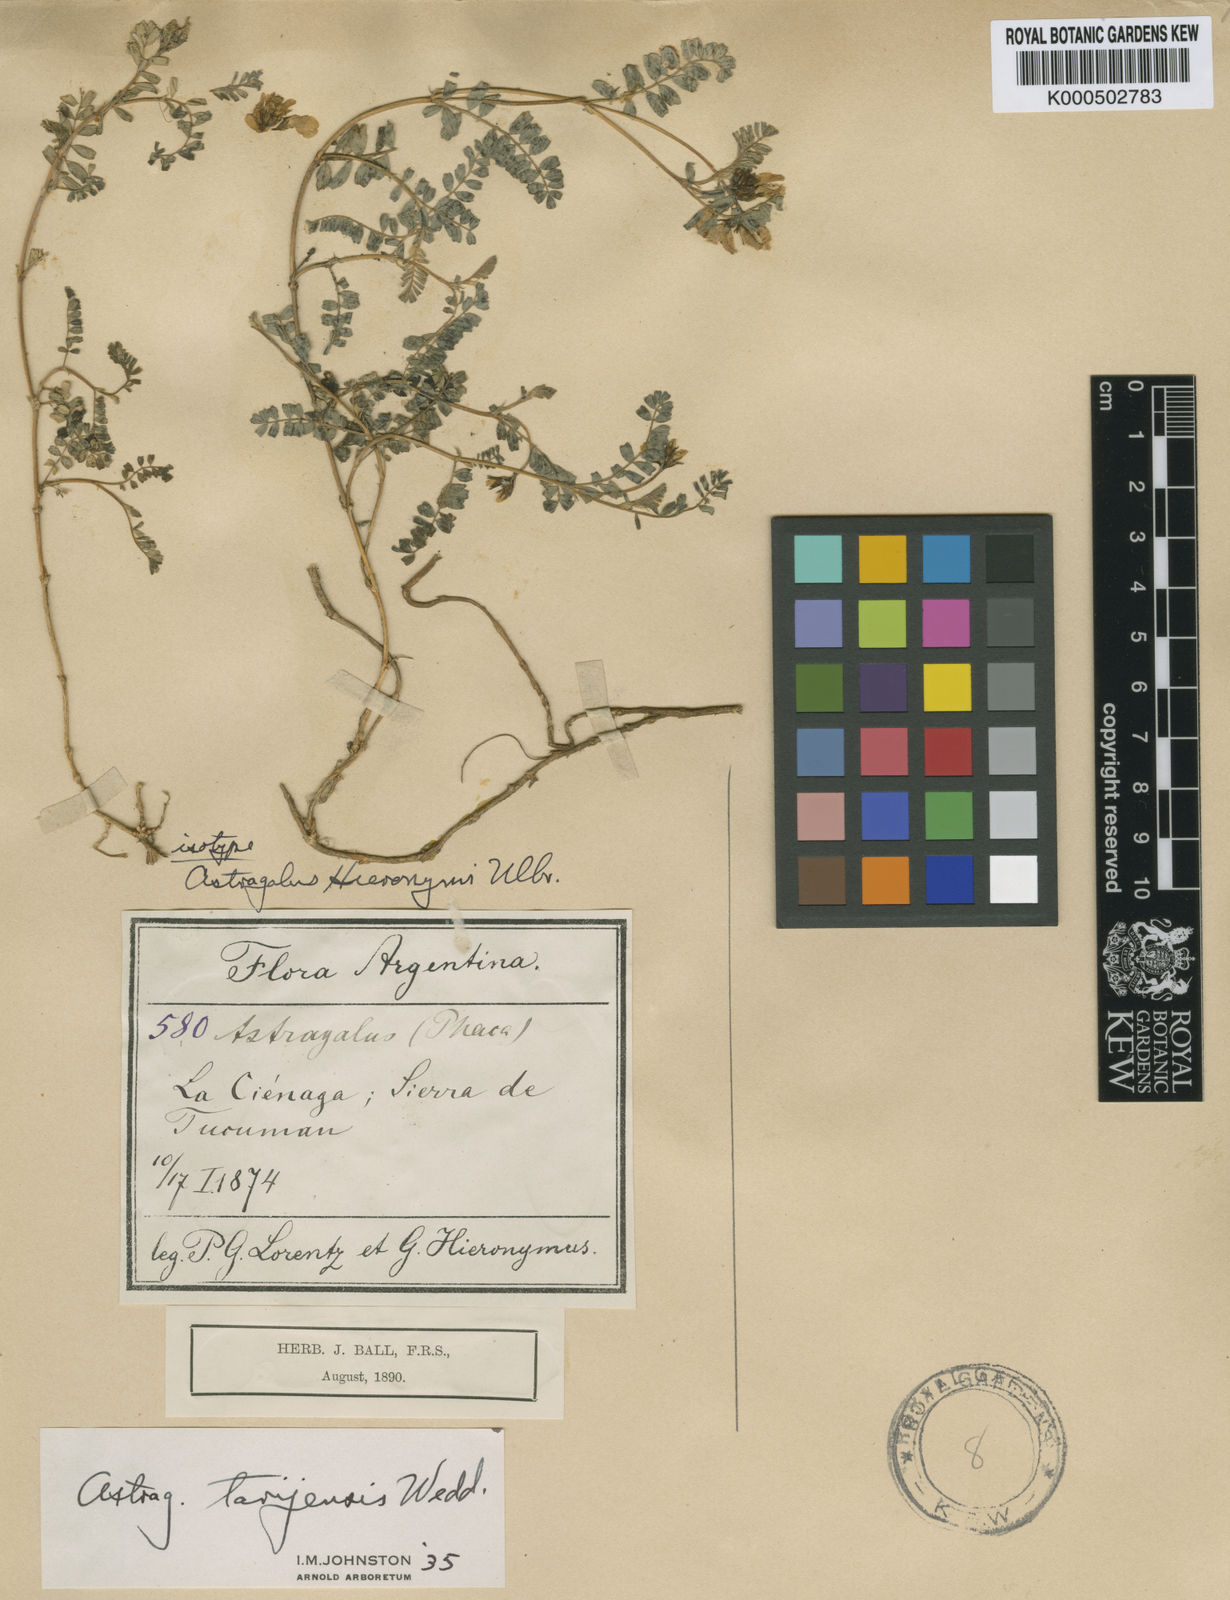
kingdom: Plantae
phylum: Tracheophyta
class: Magnoliopsida
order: Fabales
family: Fabaceae
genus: Astragalus
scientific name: Astragalus tarijensis
